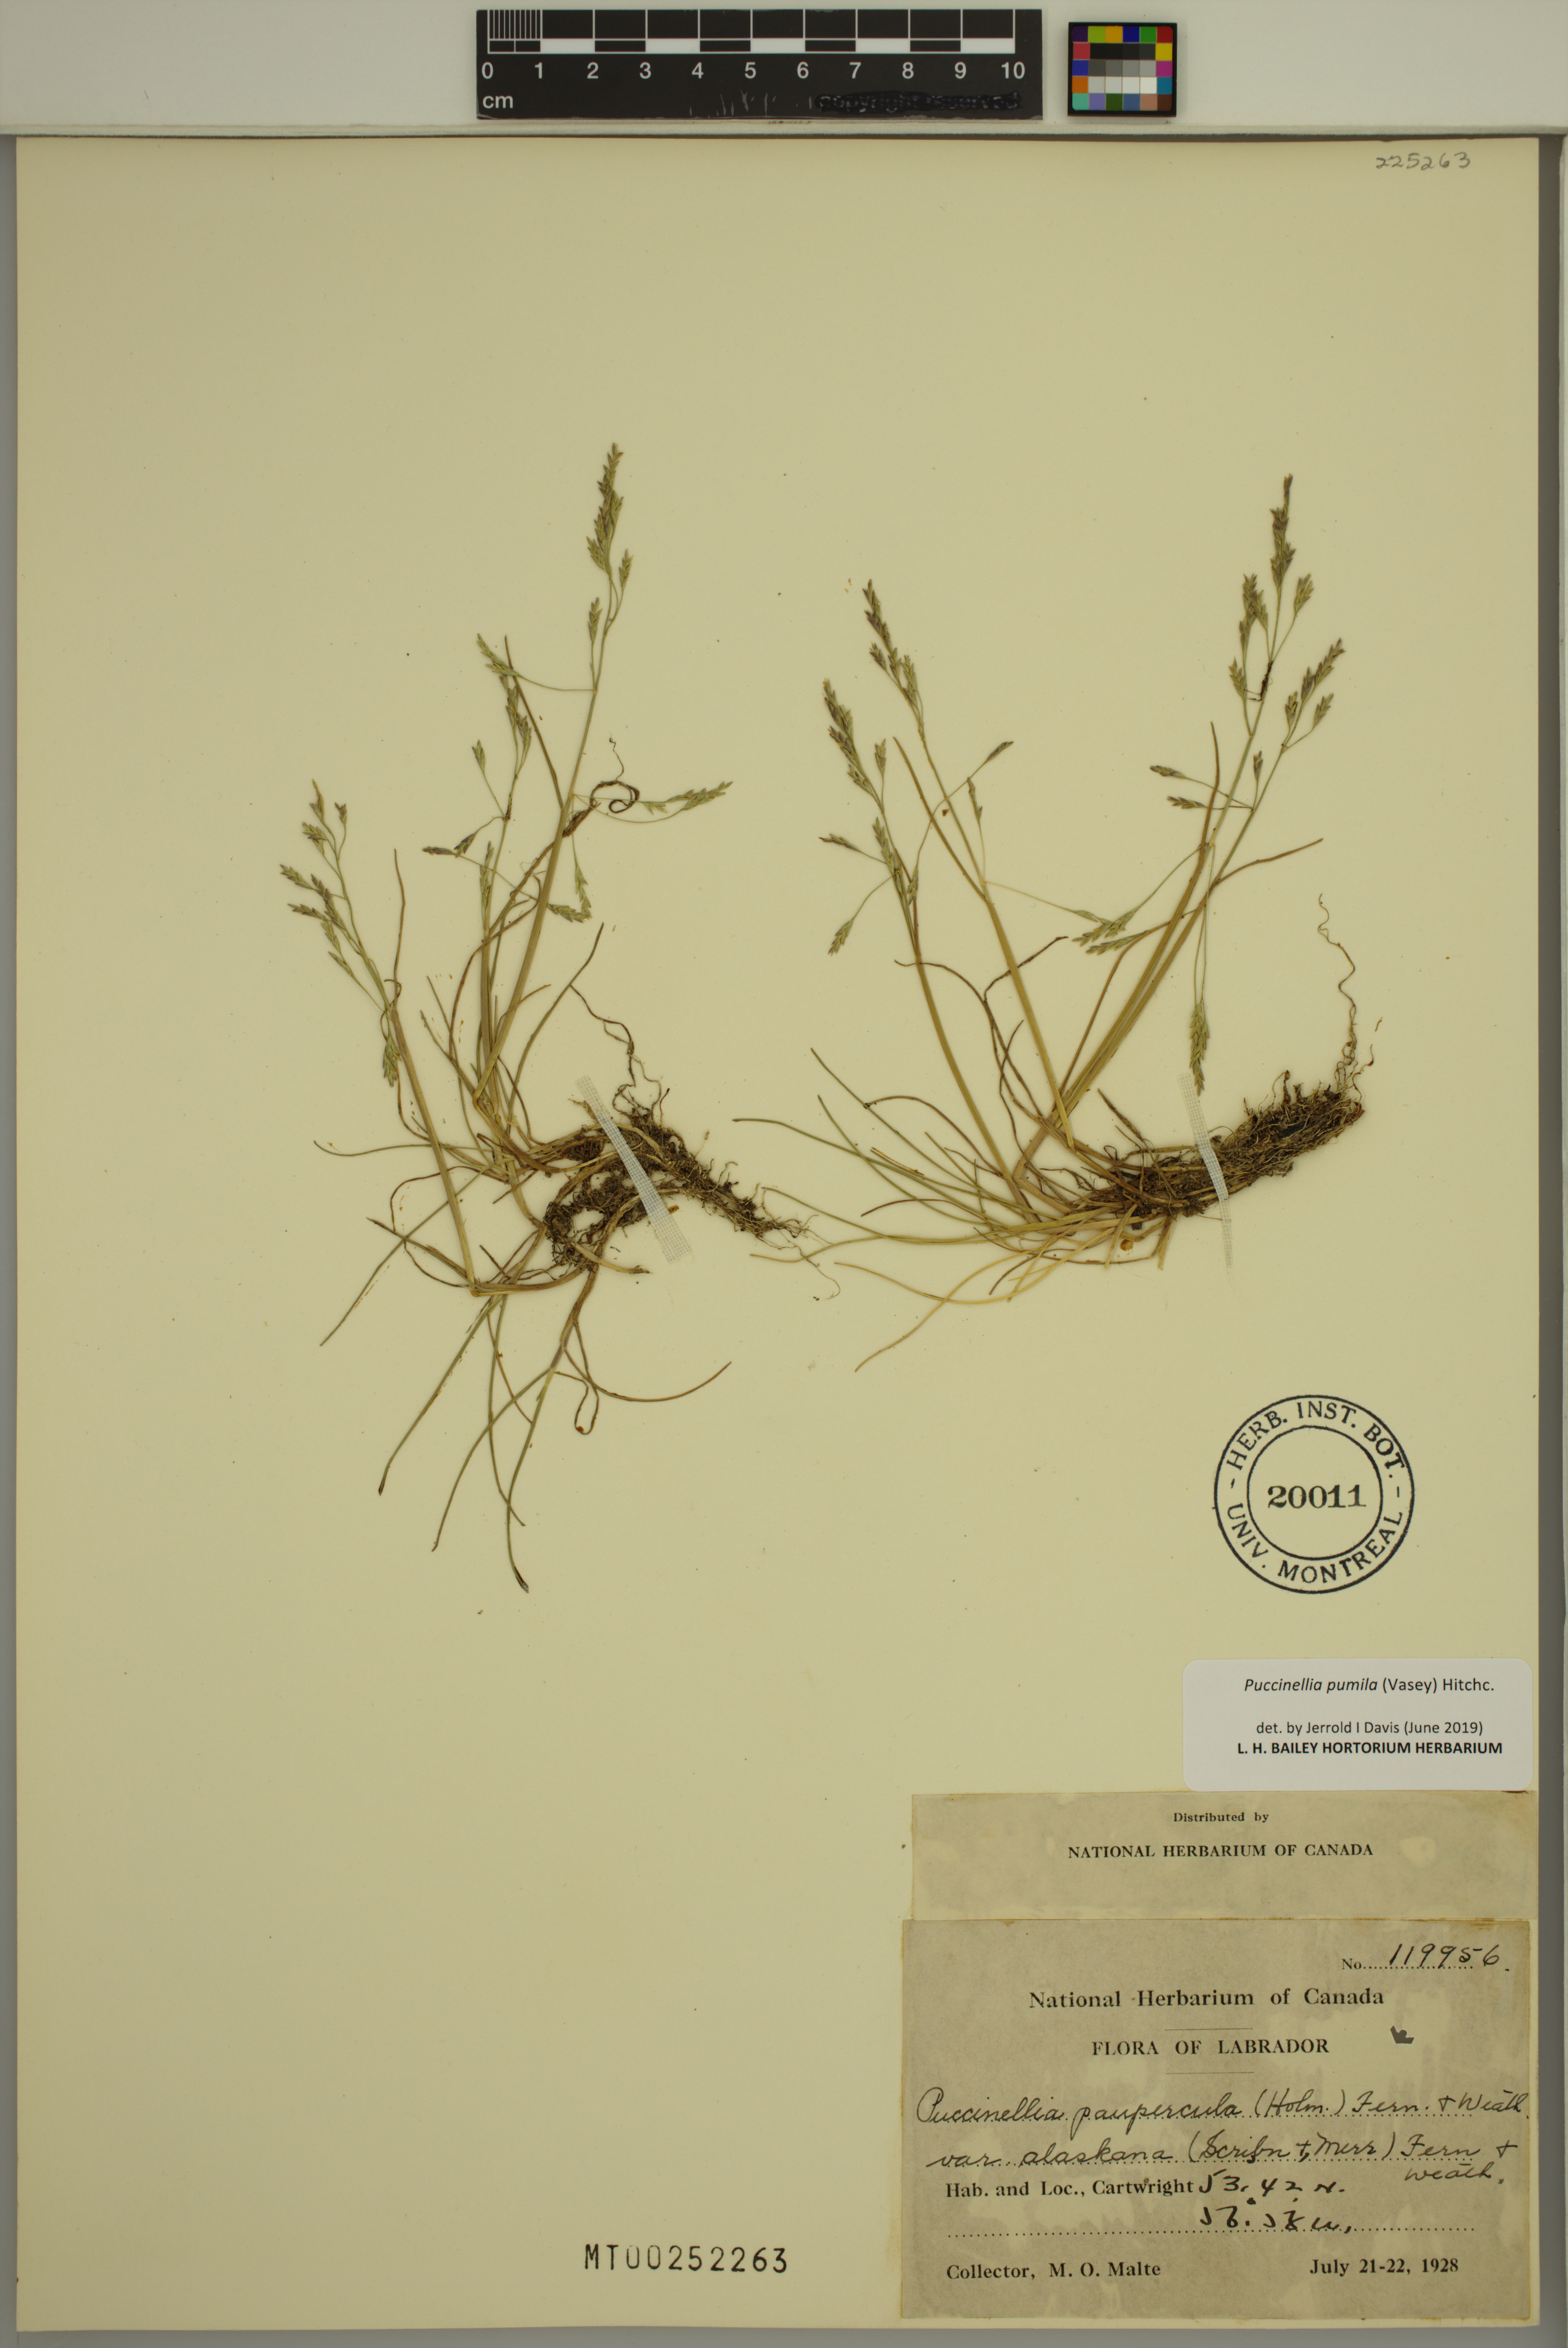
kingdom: Plantae
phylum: Tracheophyta
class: Liliopsida
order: Poales
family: Poaceae
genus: Puccinellia
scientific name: Puccinellia pumila
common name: Dwarf alkaligrass
